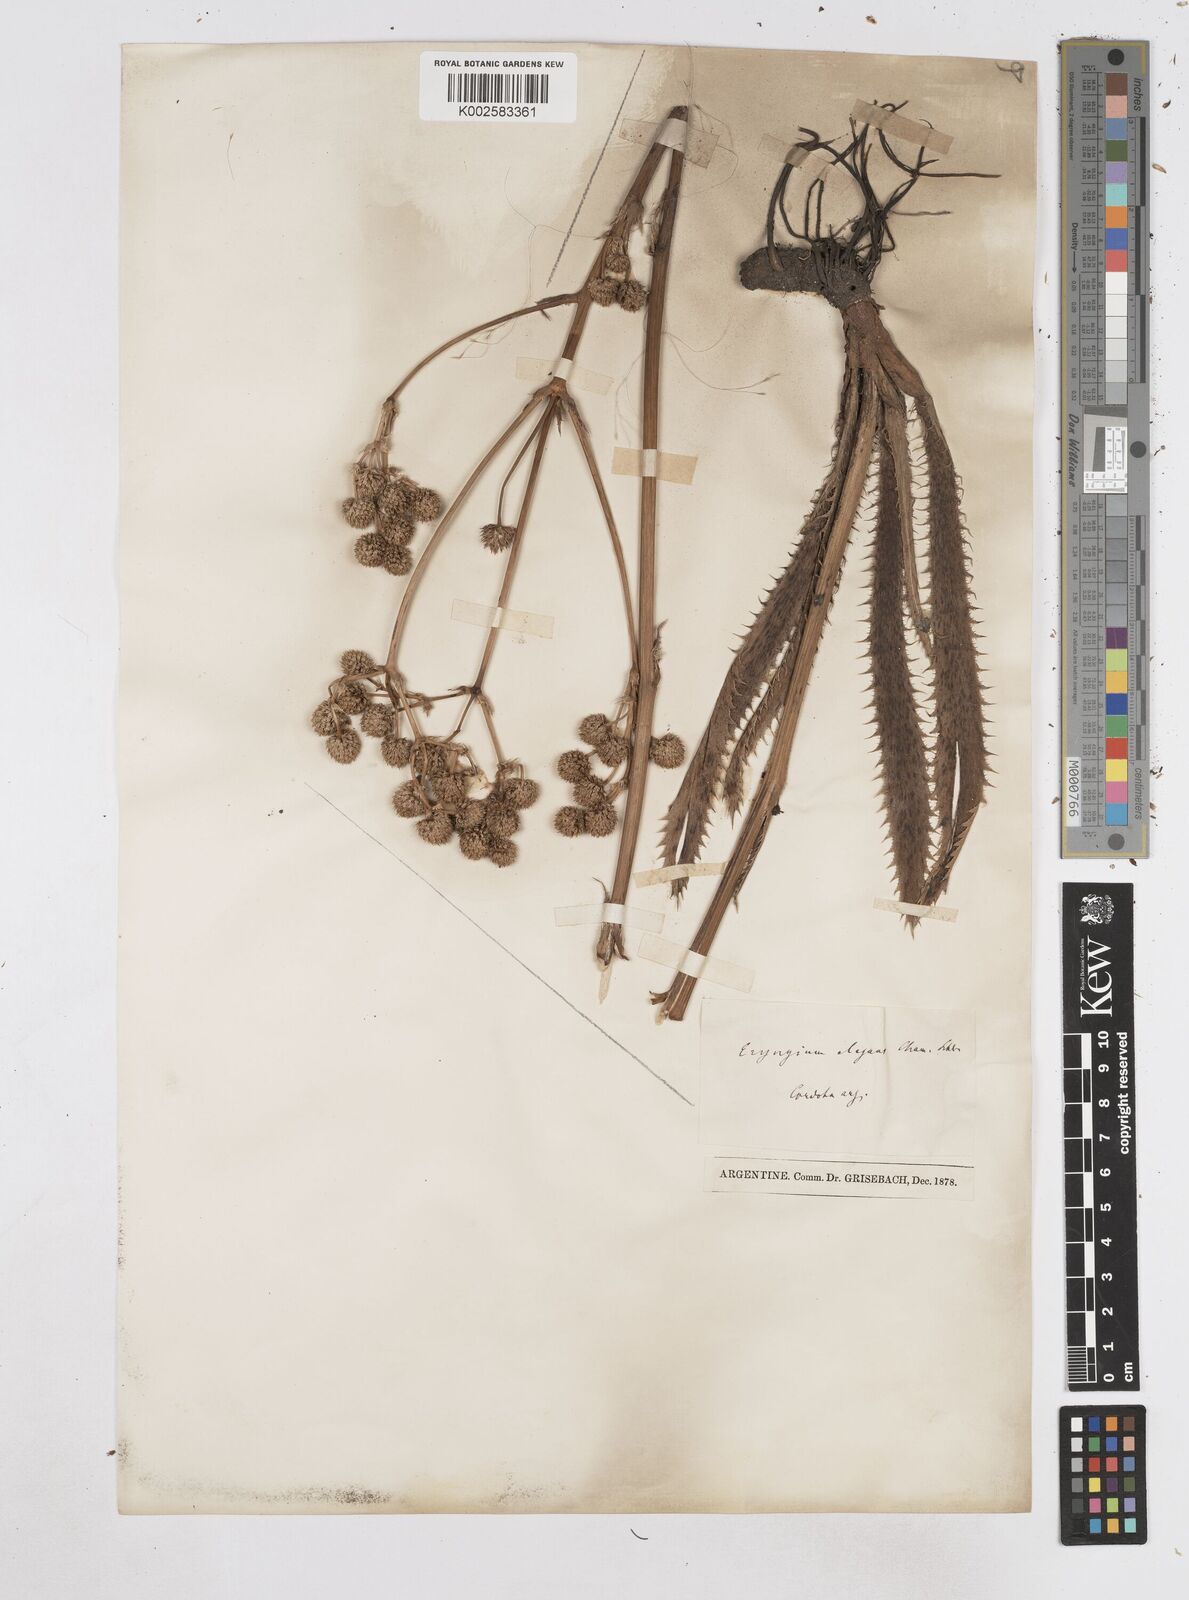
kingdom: Plantae
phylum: Tracheophyta
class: Magnoliopsida
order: Apiales
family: Apiaceae
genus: Eryngium
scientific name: Eryngium elegans
